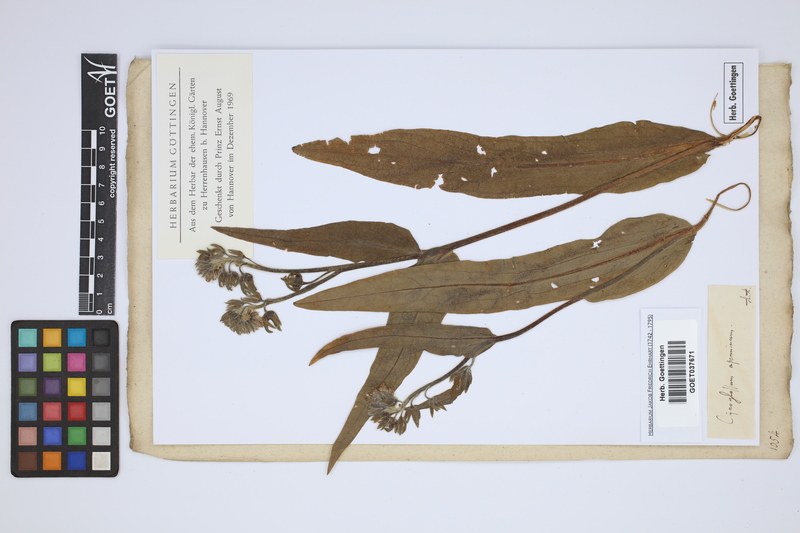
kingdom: Plantae
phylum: Tracheophyta
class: Magnoliopsida
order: Boraginales
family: Boraginaceae
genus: Solenanthus
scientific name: Solenanthus apenninus
